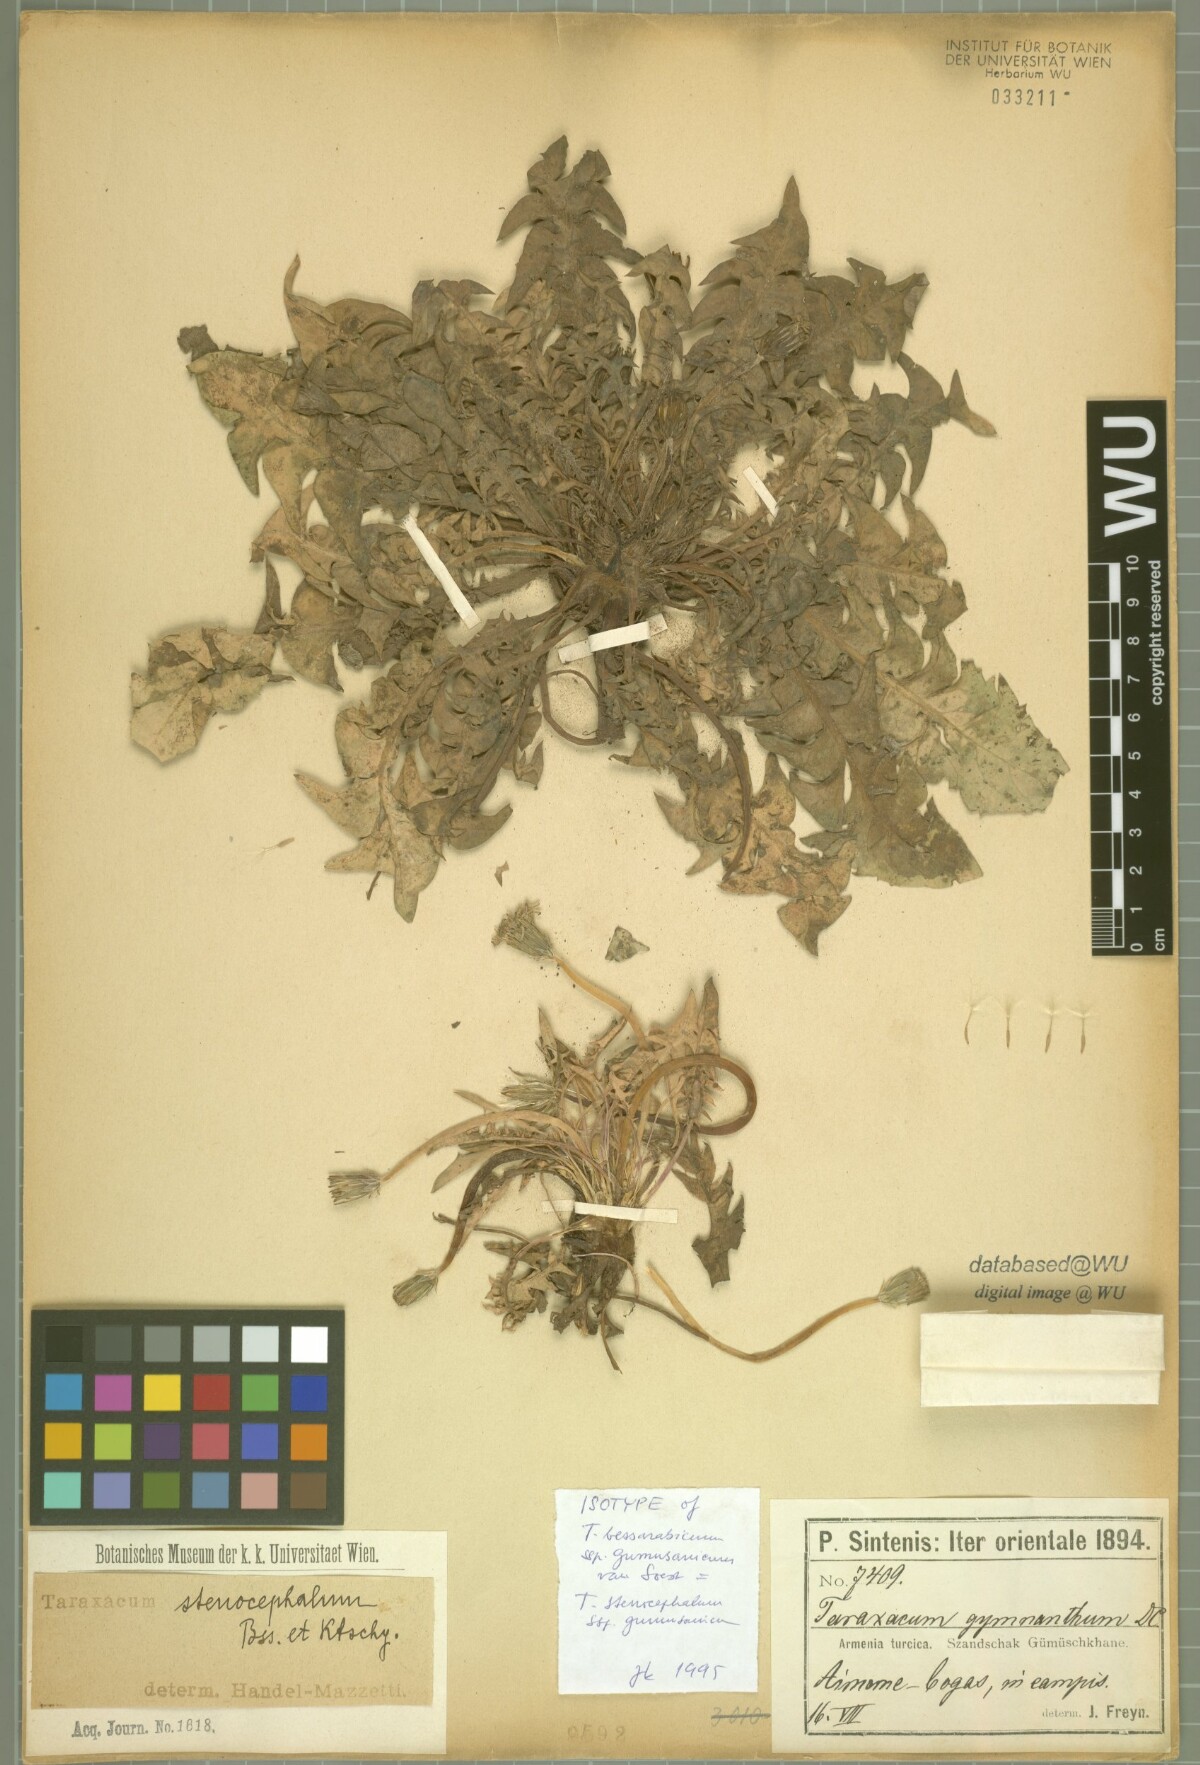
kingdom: Plantae
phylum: Tracheophyta
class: Magnoliopsida
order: Asterales
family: Asteraceae
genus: Taraxacum
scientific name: Taraxacum stenocephalum
